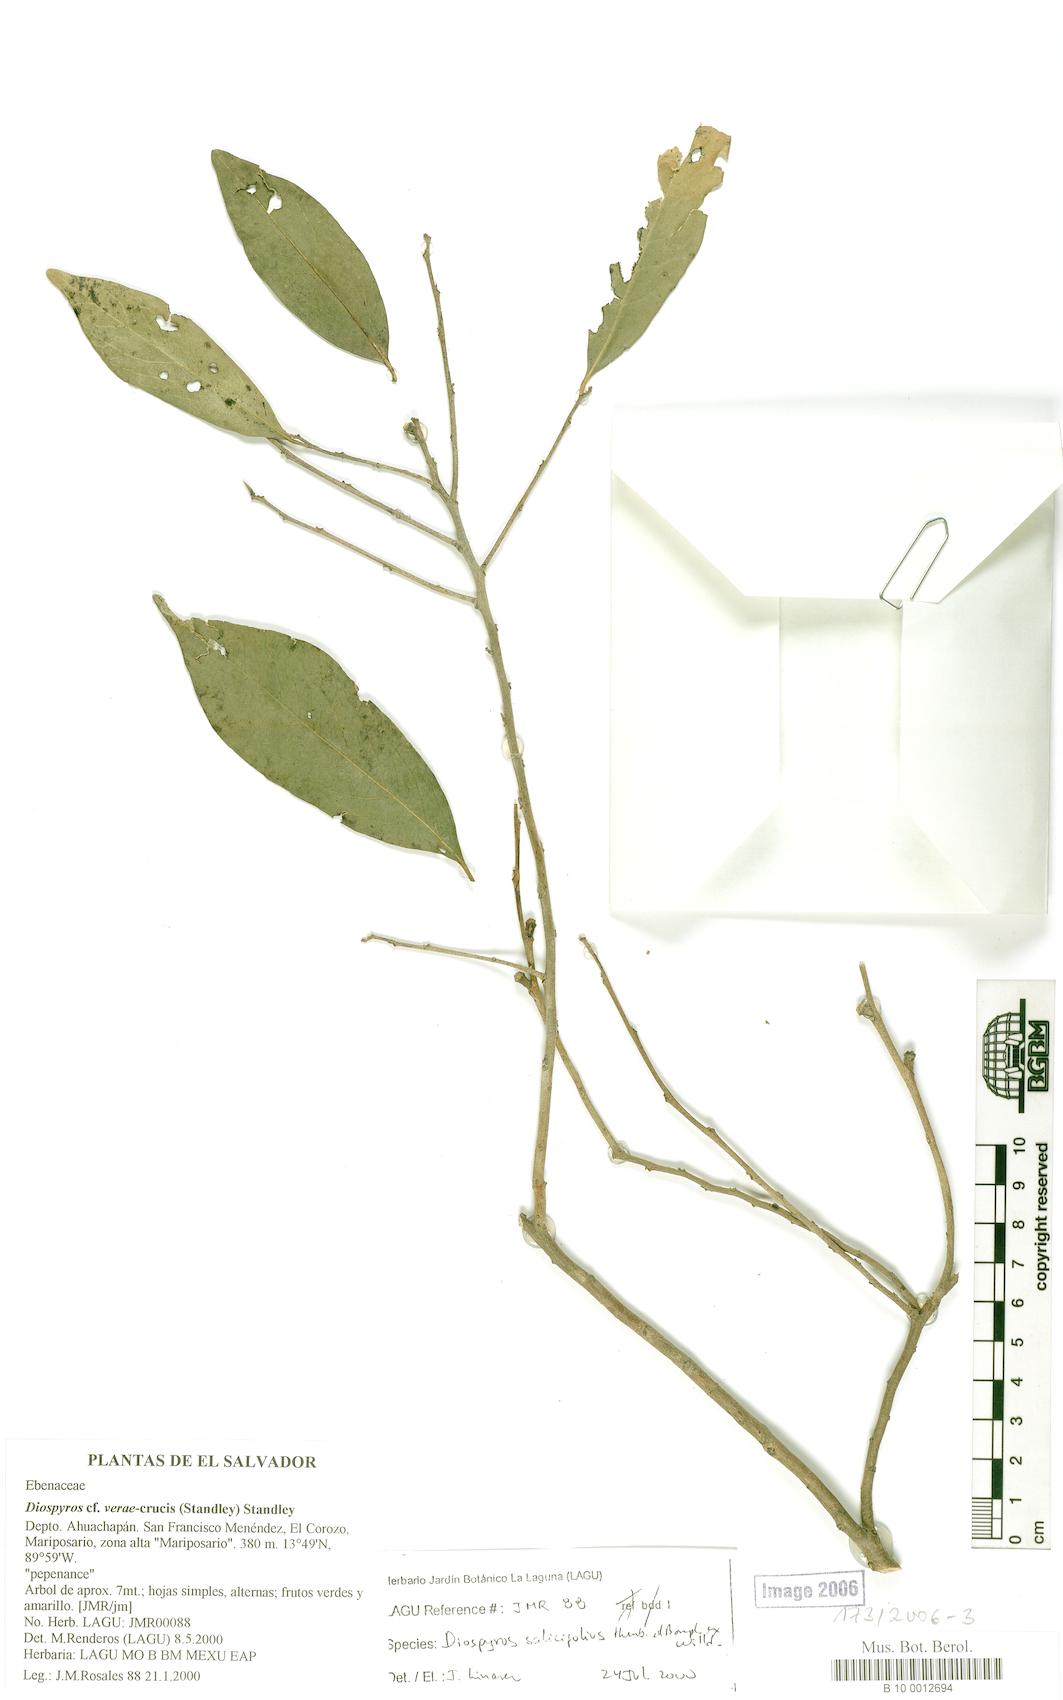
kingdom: Plantae
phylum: Tracheophyta
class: Magnoliopsida
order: Ericales
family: Ebenaceae
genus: Diospyros
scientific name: Diospyros salicifolia
